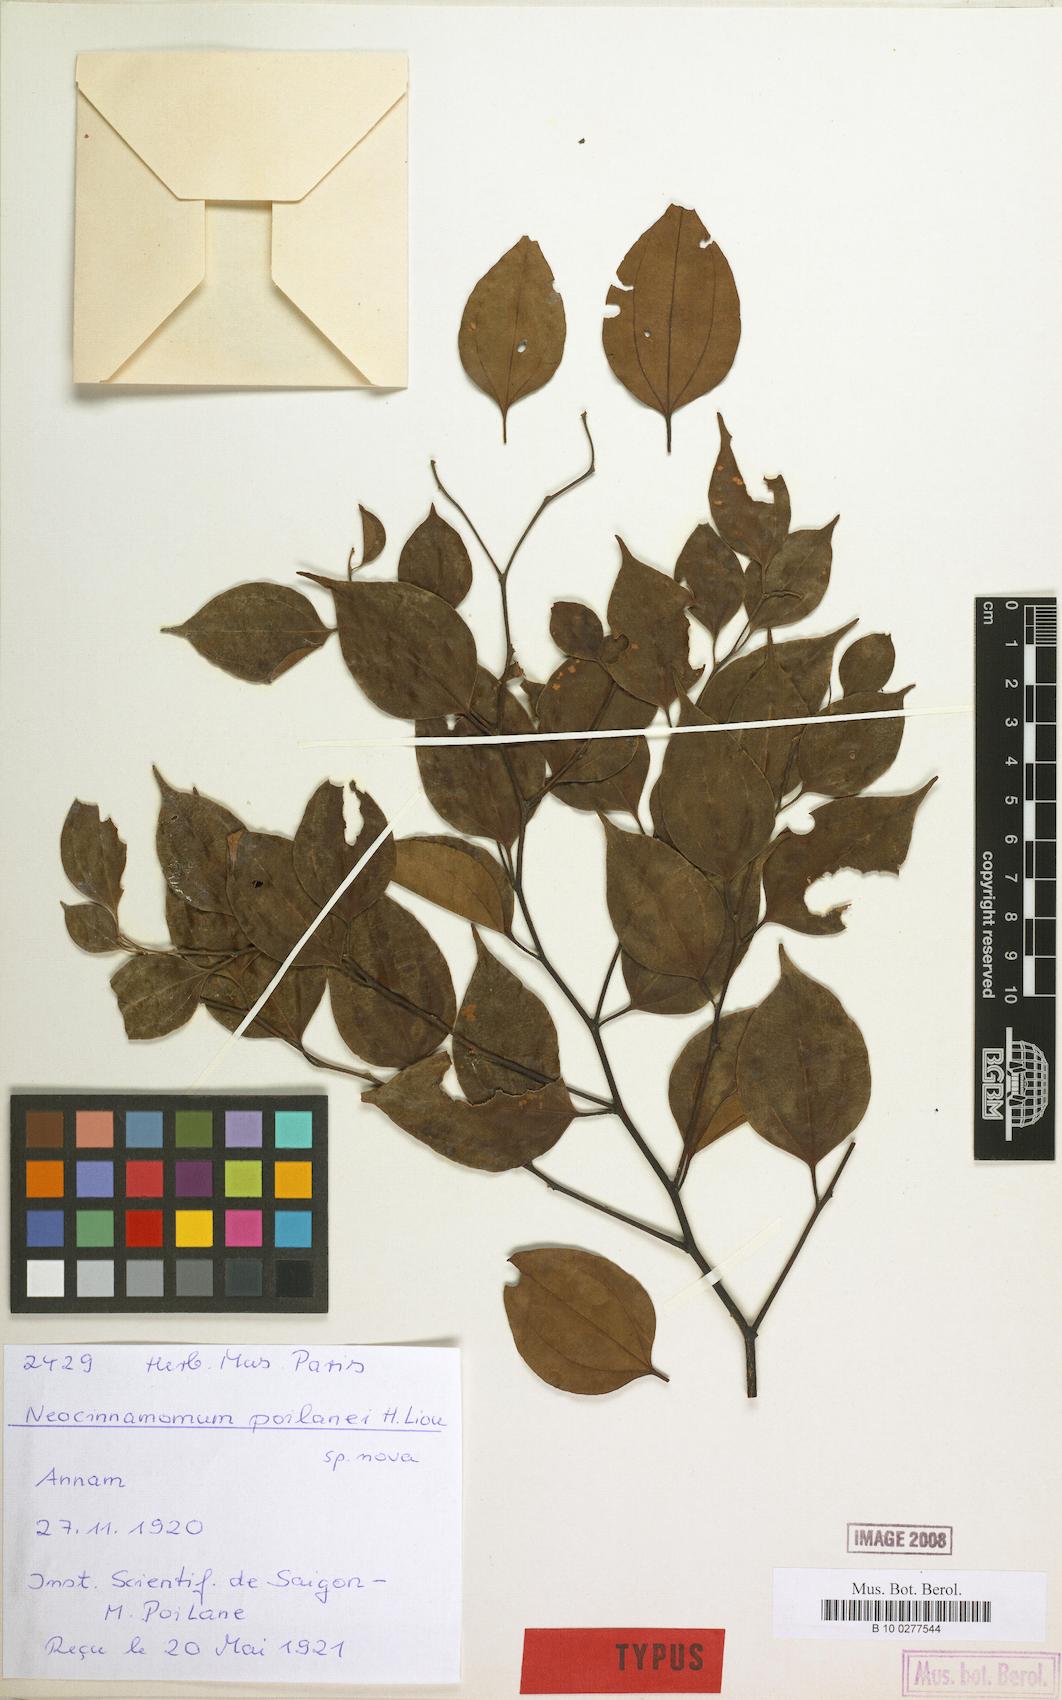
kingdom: Plantae
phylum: Tracheophyta
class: Magnoliopsida
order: Laurales
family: Lauraceae
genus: Neocinnamomum
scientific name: Neocinnamomum poilanei
